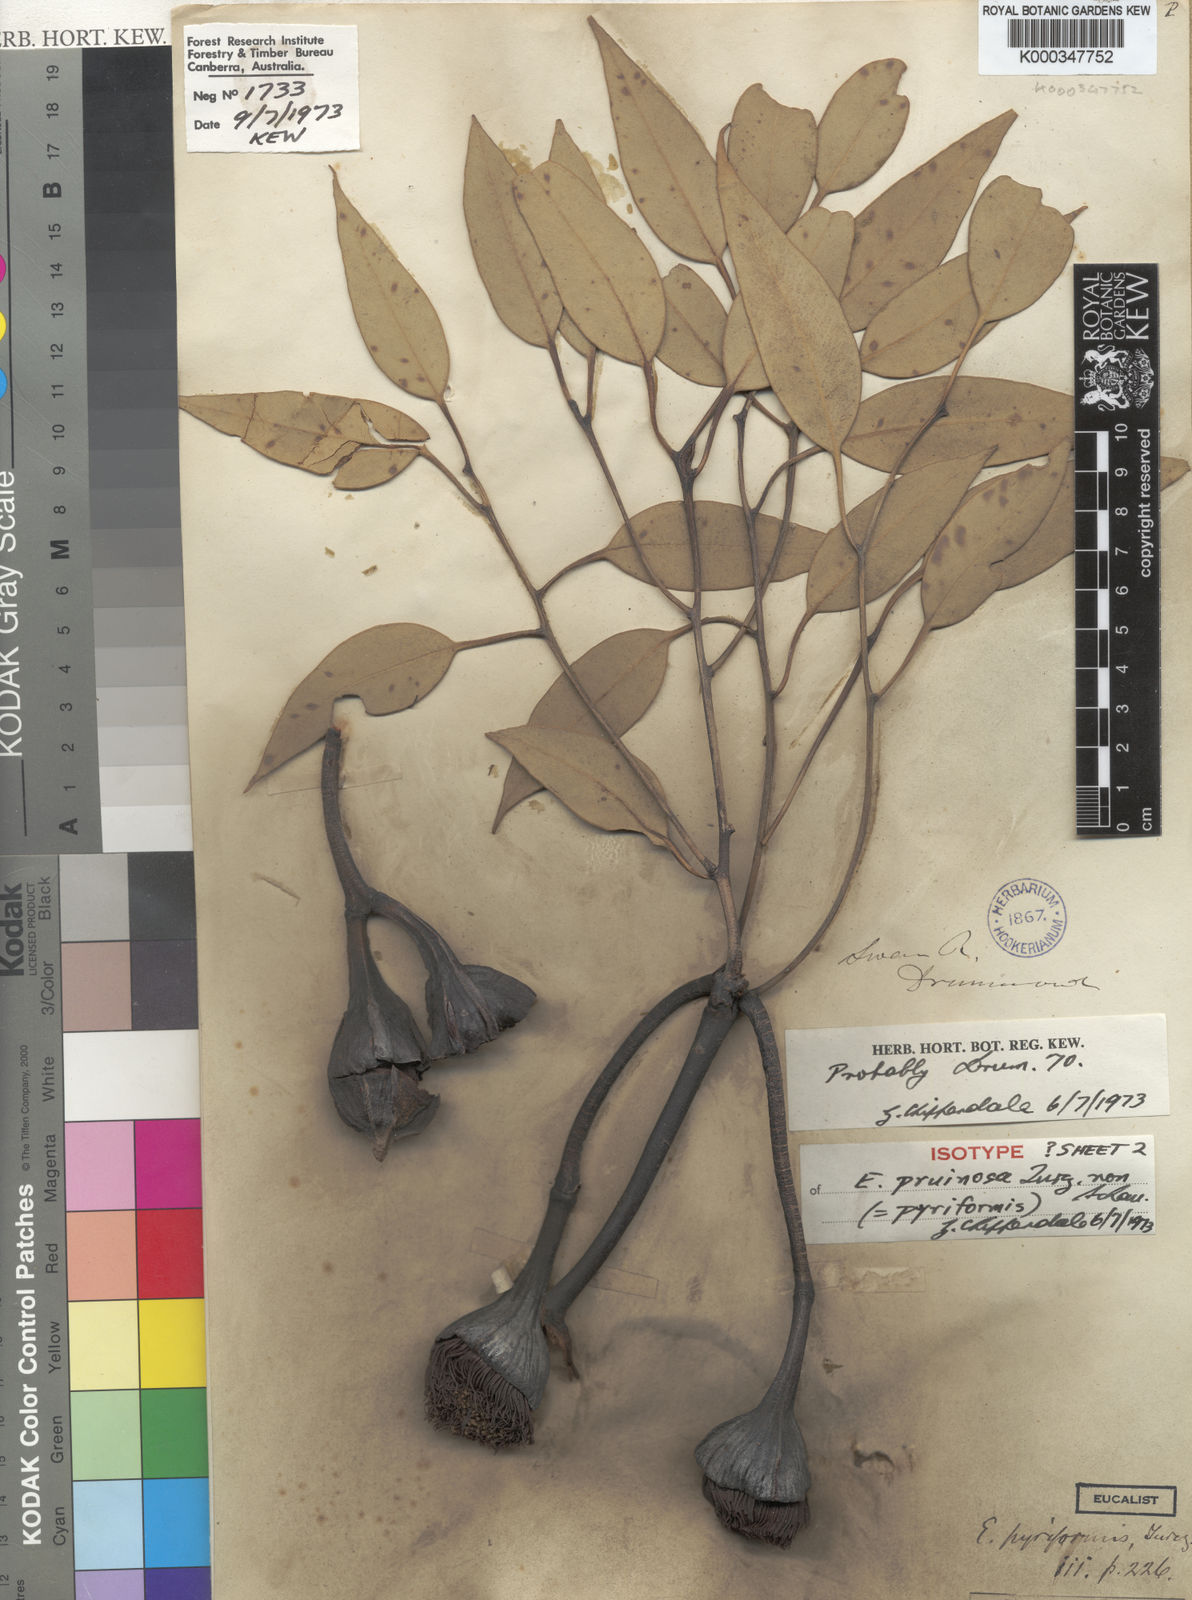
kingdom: Plantae
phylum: Tracheophyta
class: Magnoliopsida
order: Myrtales
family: Myrtaceae
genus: Eucalyptus
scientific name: Eucalyptus pyriformis
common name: Dowerin rose
